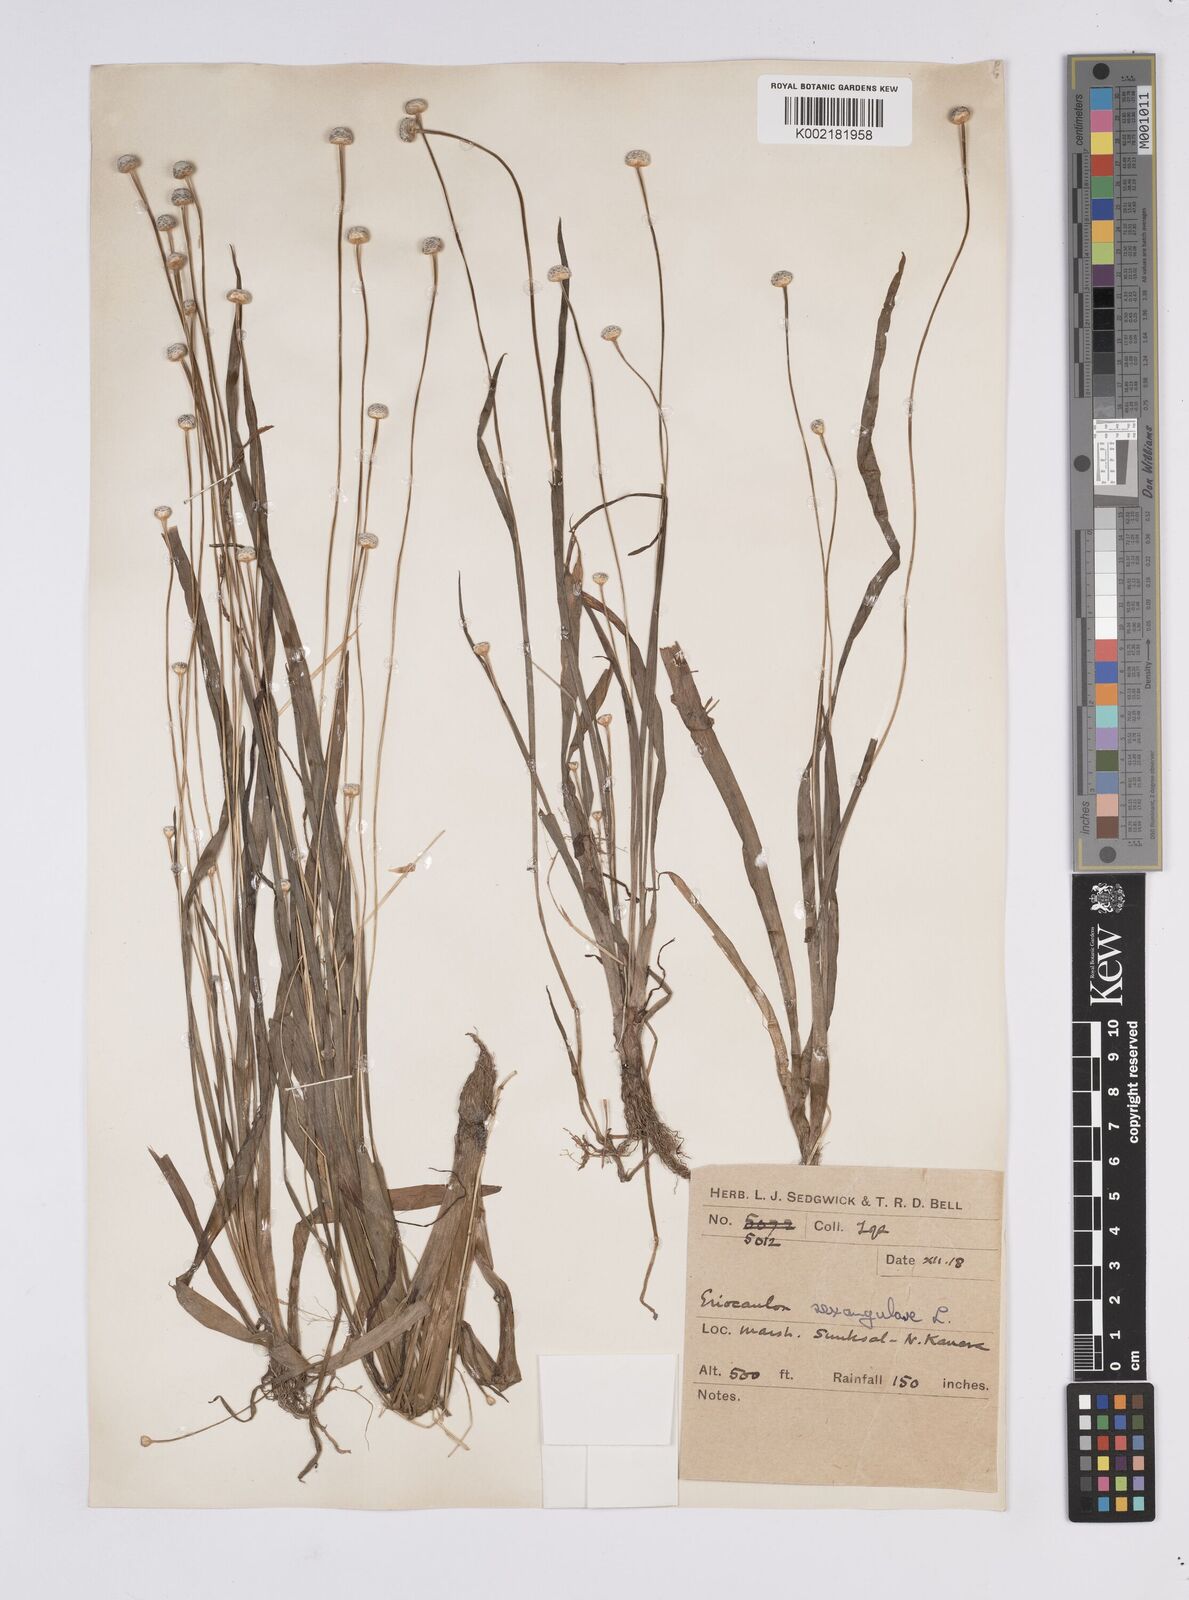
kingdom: Plantae
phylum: Tracheophyta
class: Liliopsida
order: Poales
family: Eriocaulaceae
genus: Eriocaulon
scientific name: Eriocaulon sexangulare
